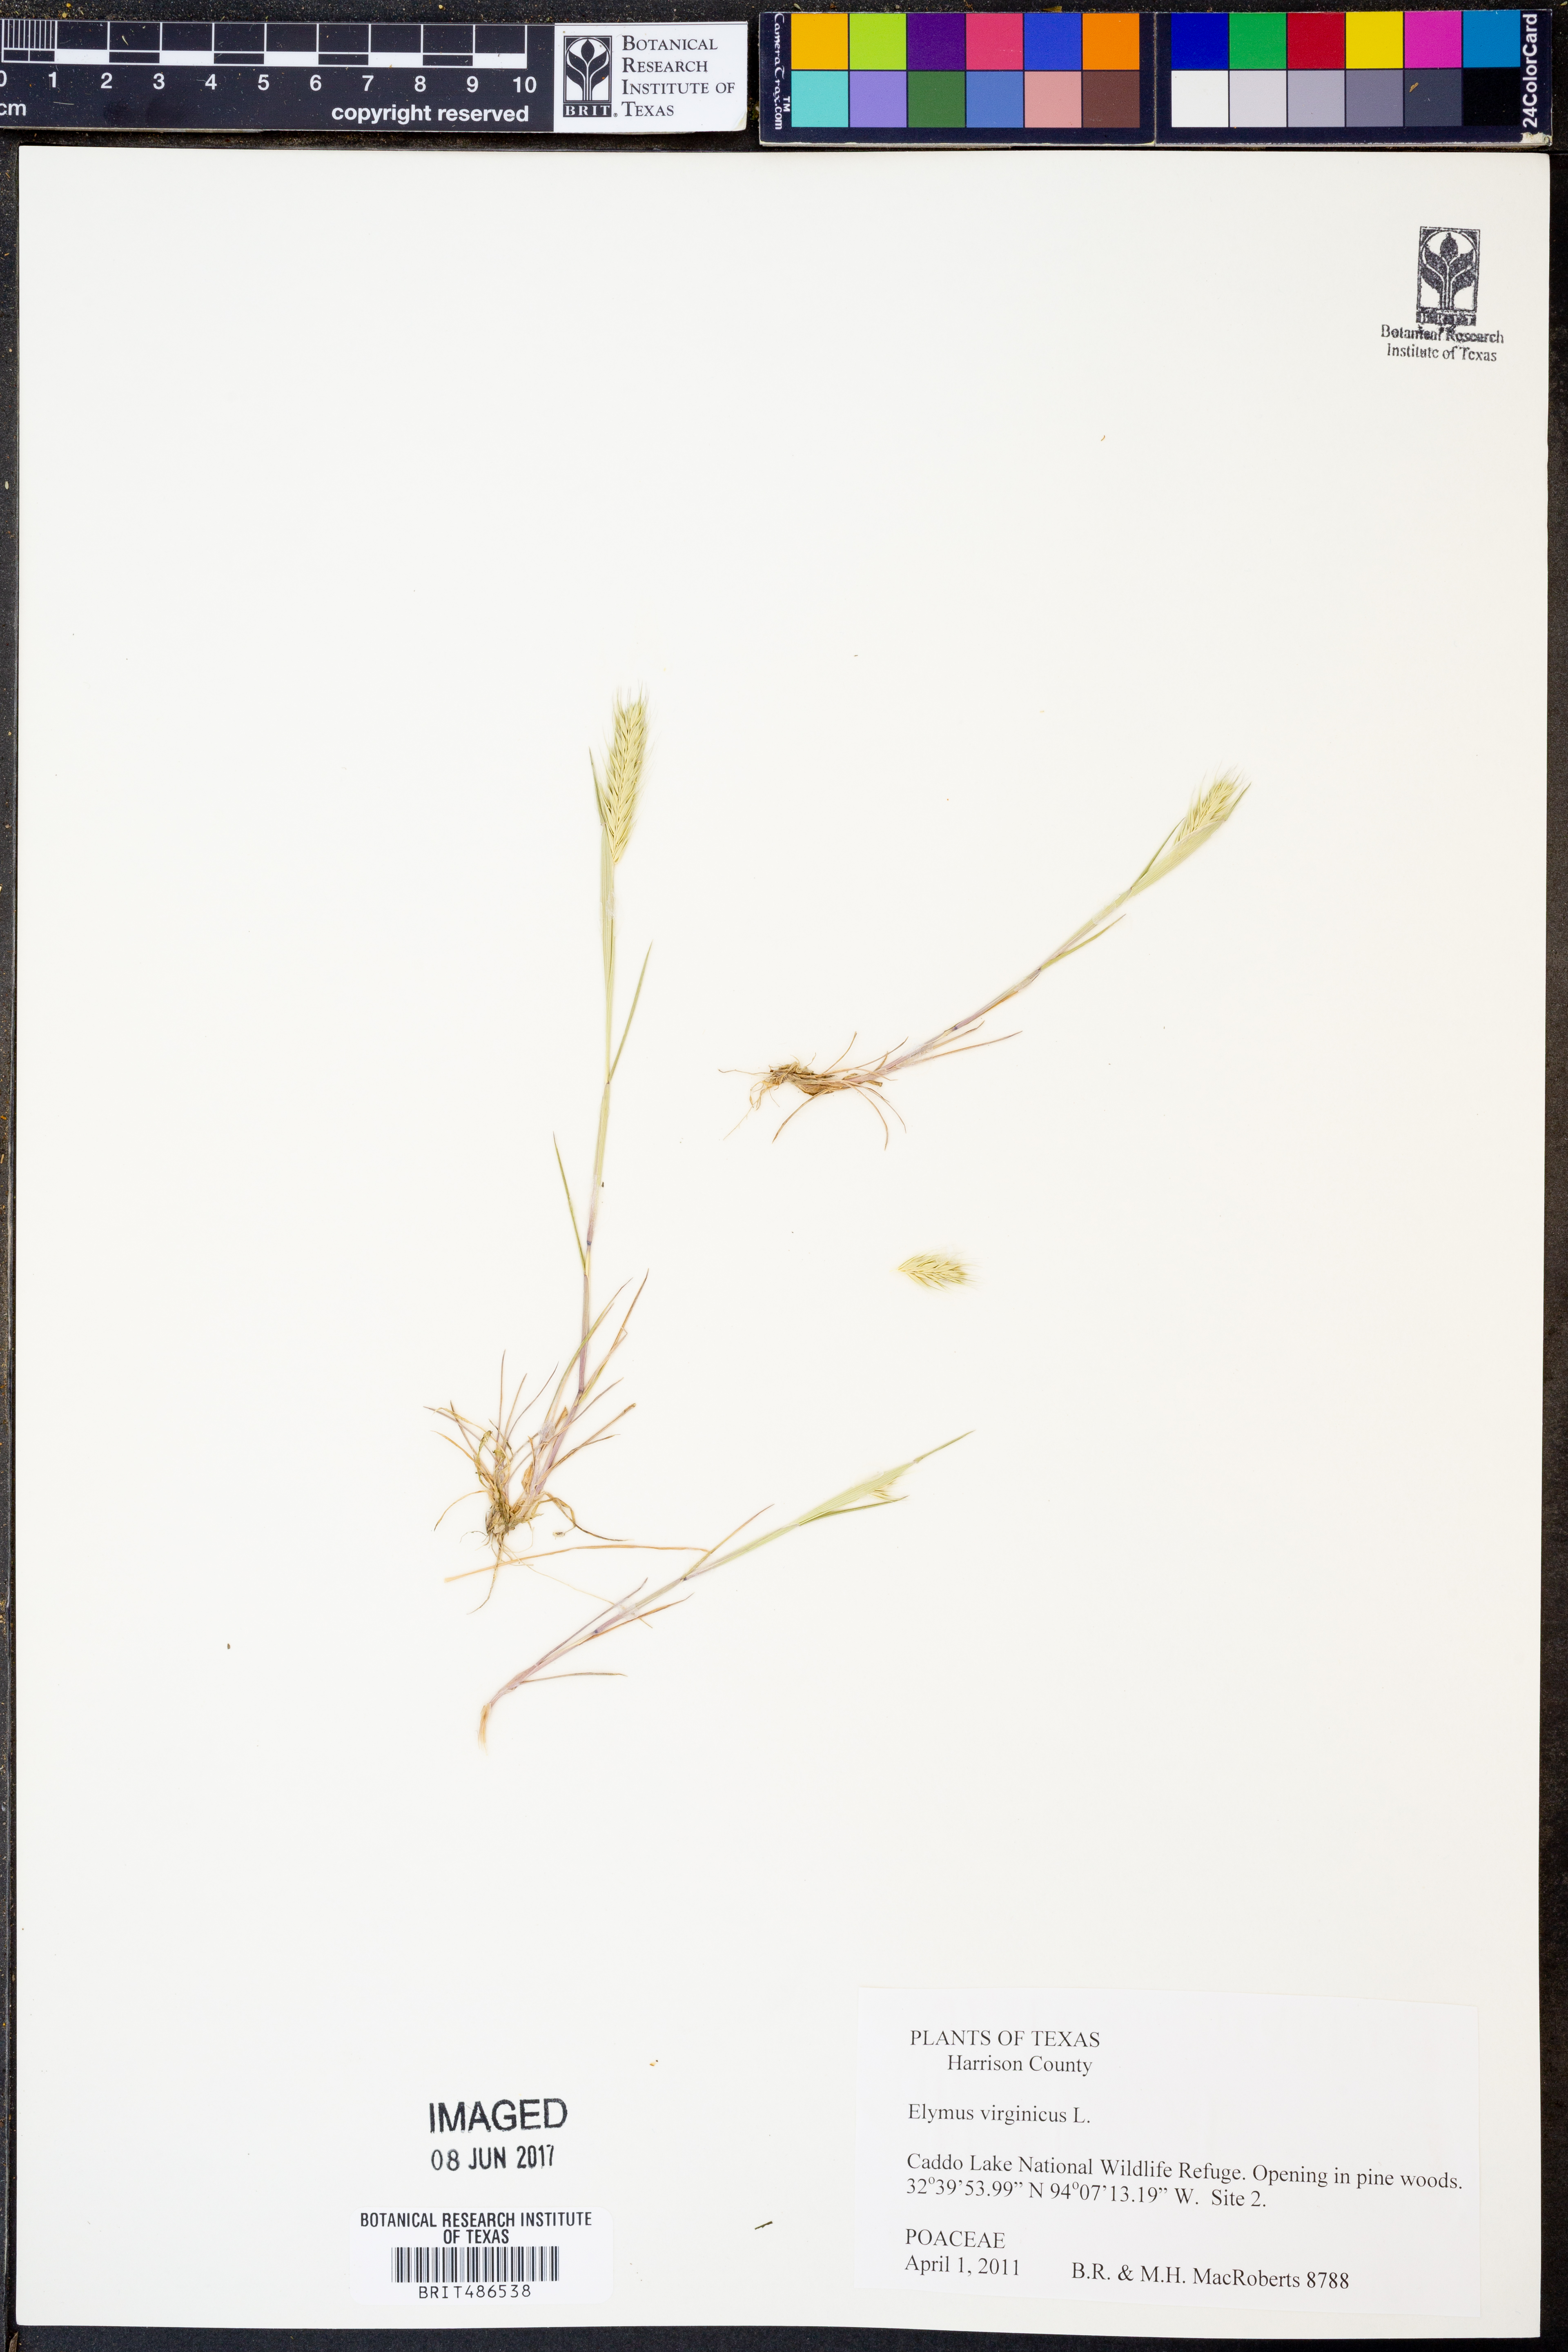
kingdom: Plantae
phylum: Tracheophyta
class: Liliopsida
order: Poales
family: Poaceae
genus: Elymus
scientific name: Elymus virginicus
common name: Common eastern wildrye
